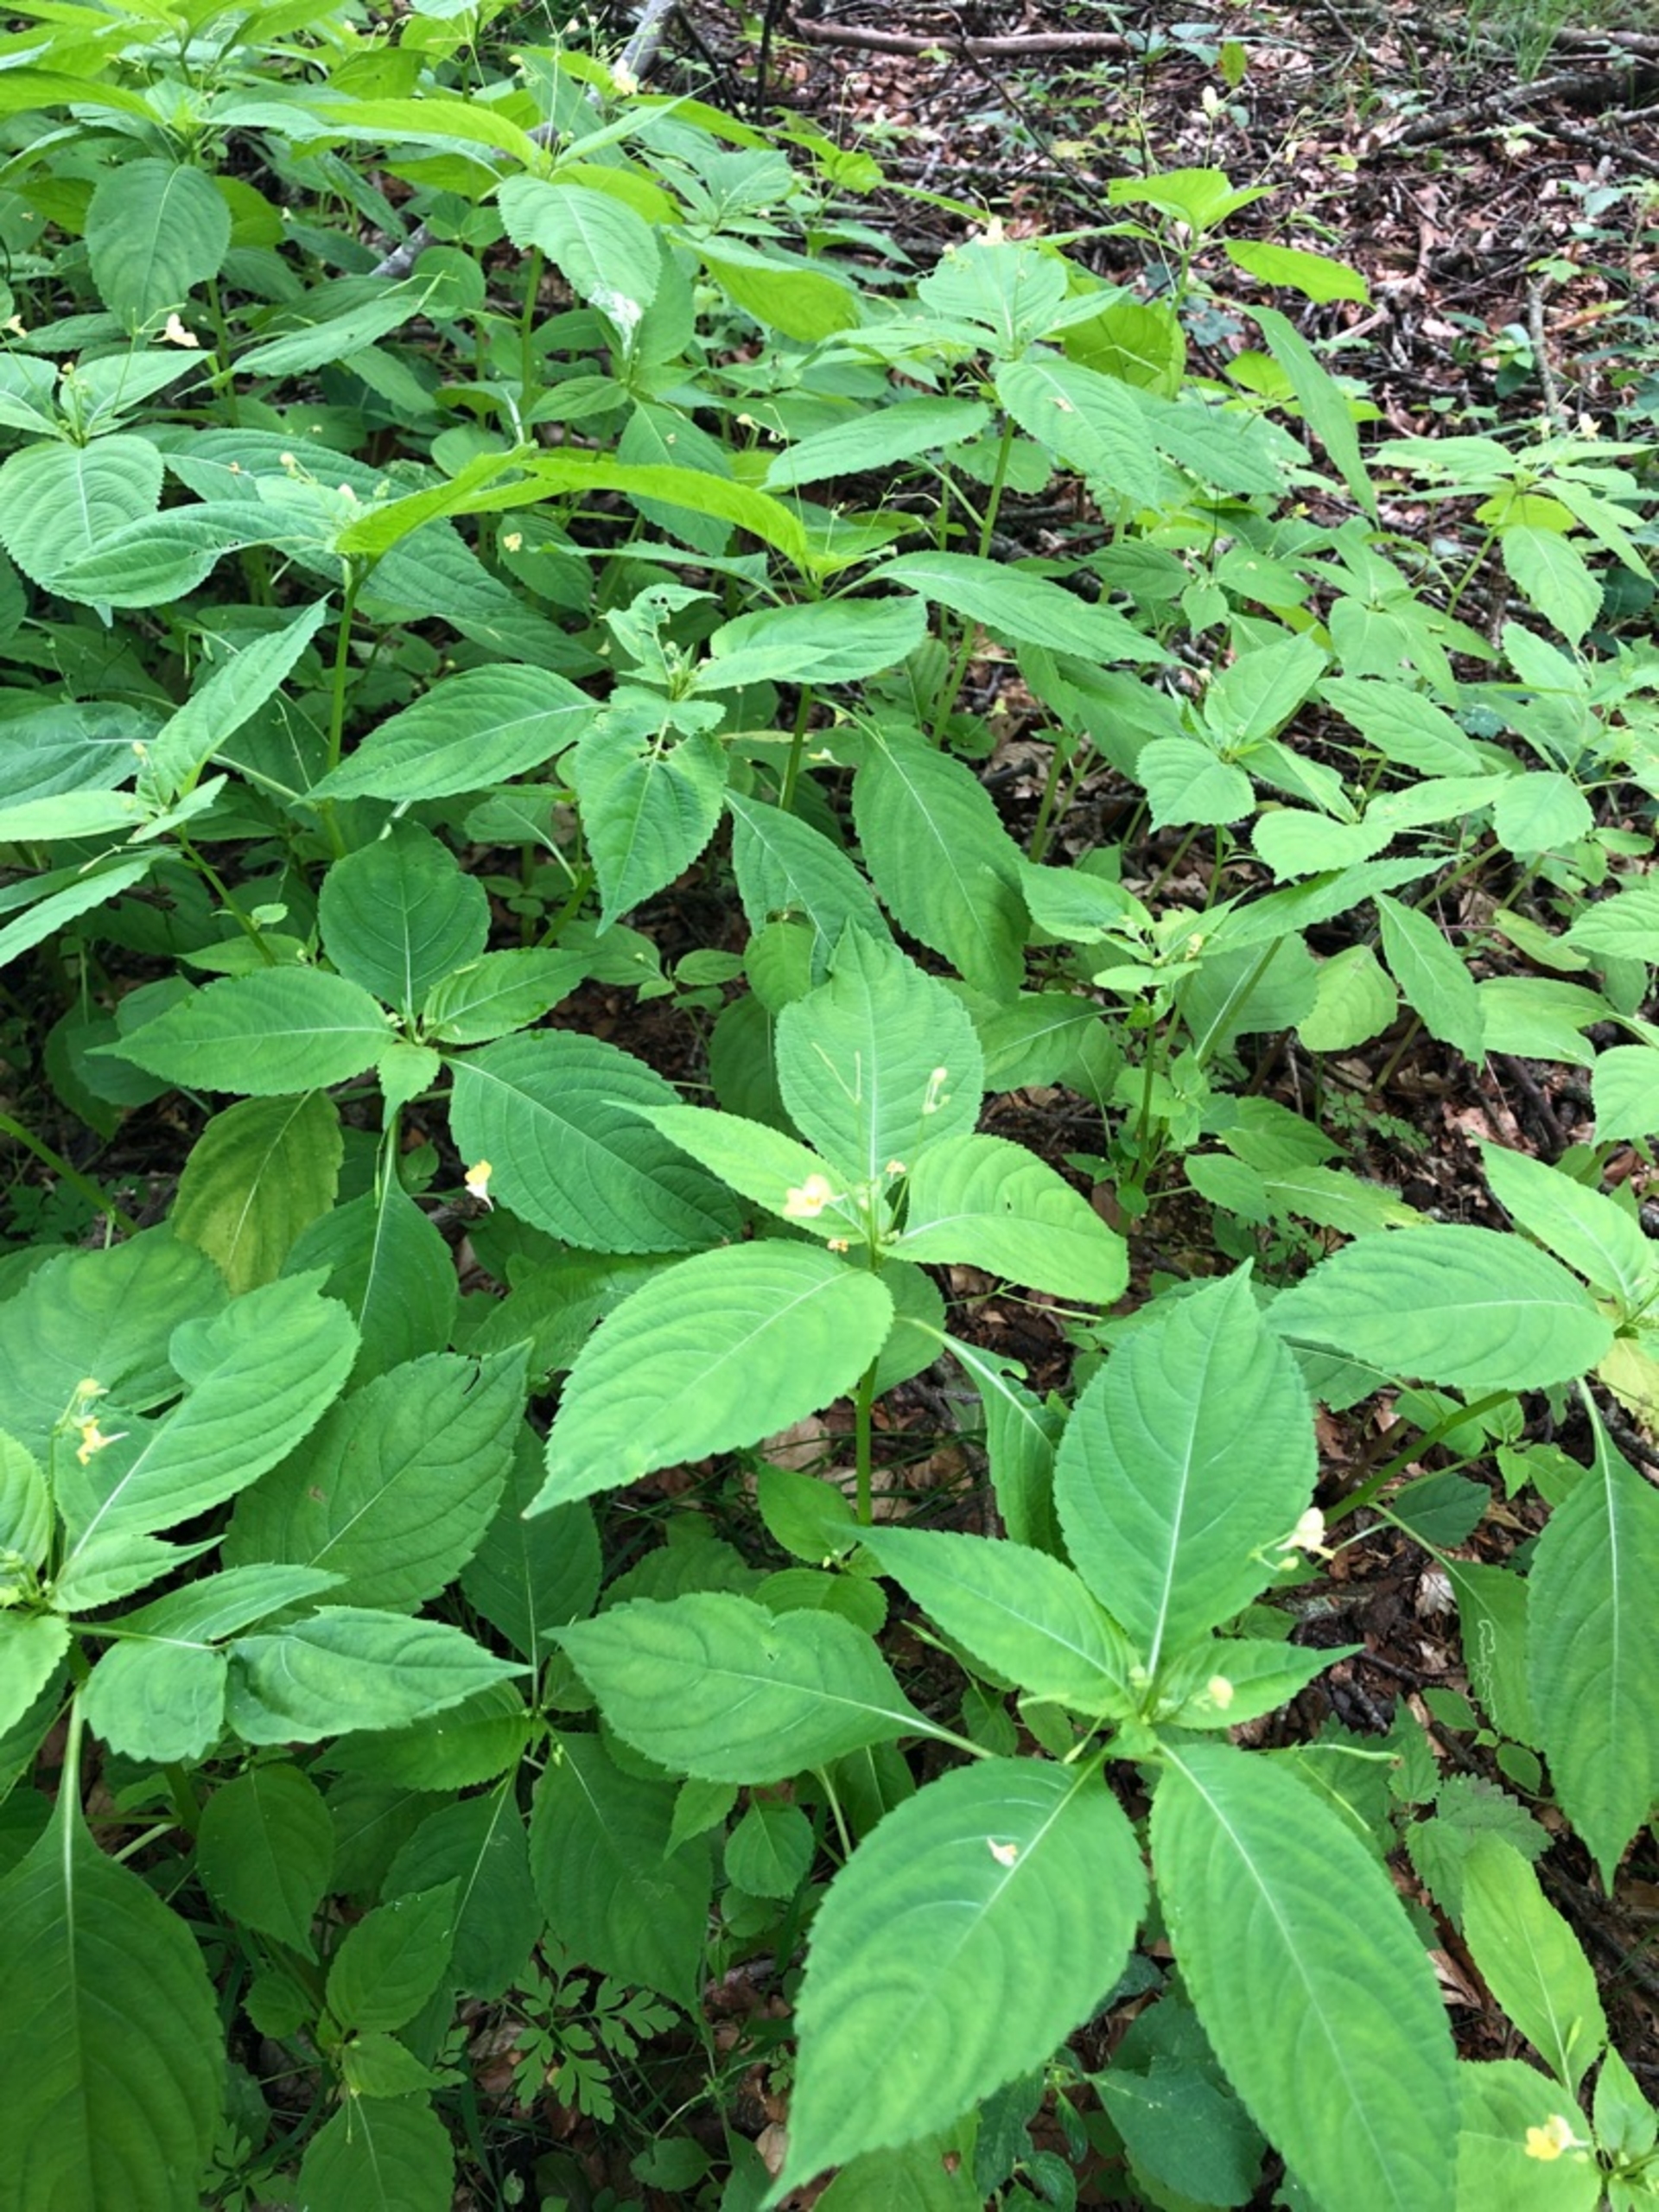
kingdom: Plantae
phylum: Tracheophyta
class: Magnoliopsida
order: Ericales
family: Balsaminaceae
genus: Impatiens
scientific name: Impatiens parviflora
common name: Småblomstret balsamin
